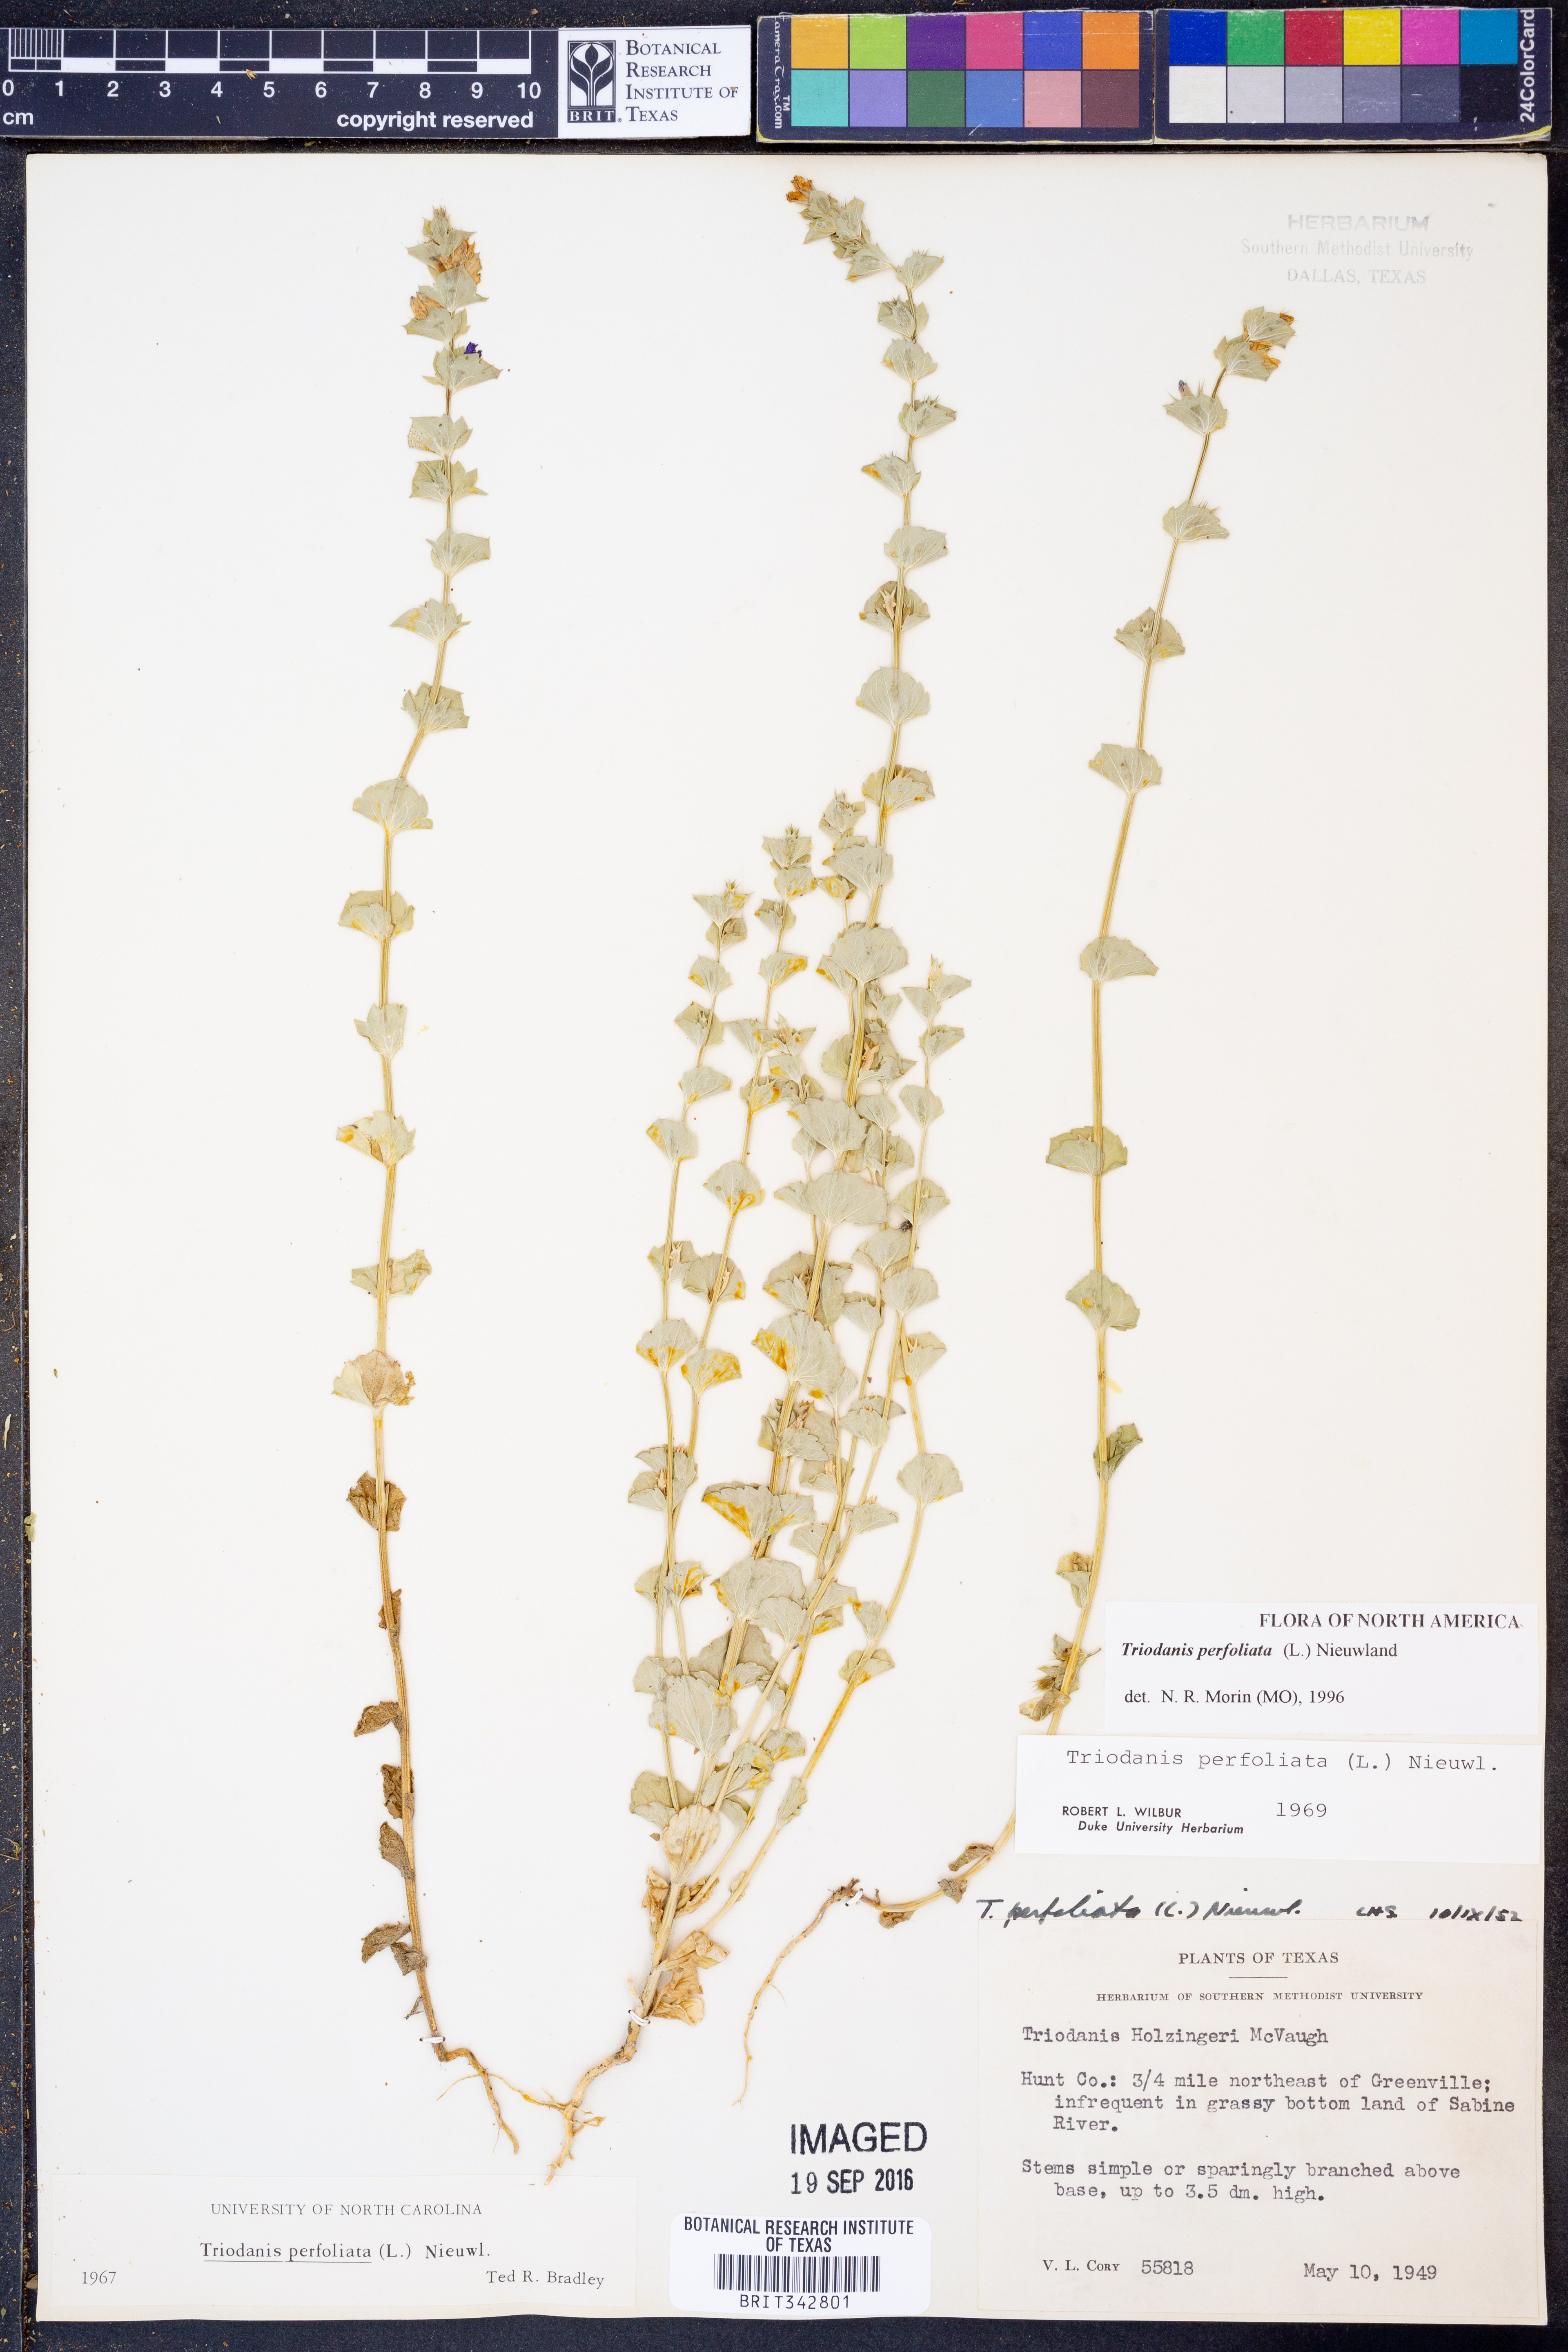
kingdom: Plantae
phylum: Tracheophyta
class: Magnoliopsida
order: Asterales
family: Campanulaceae
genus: Triodanis
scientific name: Triodanis perfoliata
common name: Clasping venus' looking-glass
